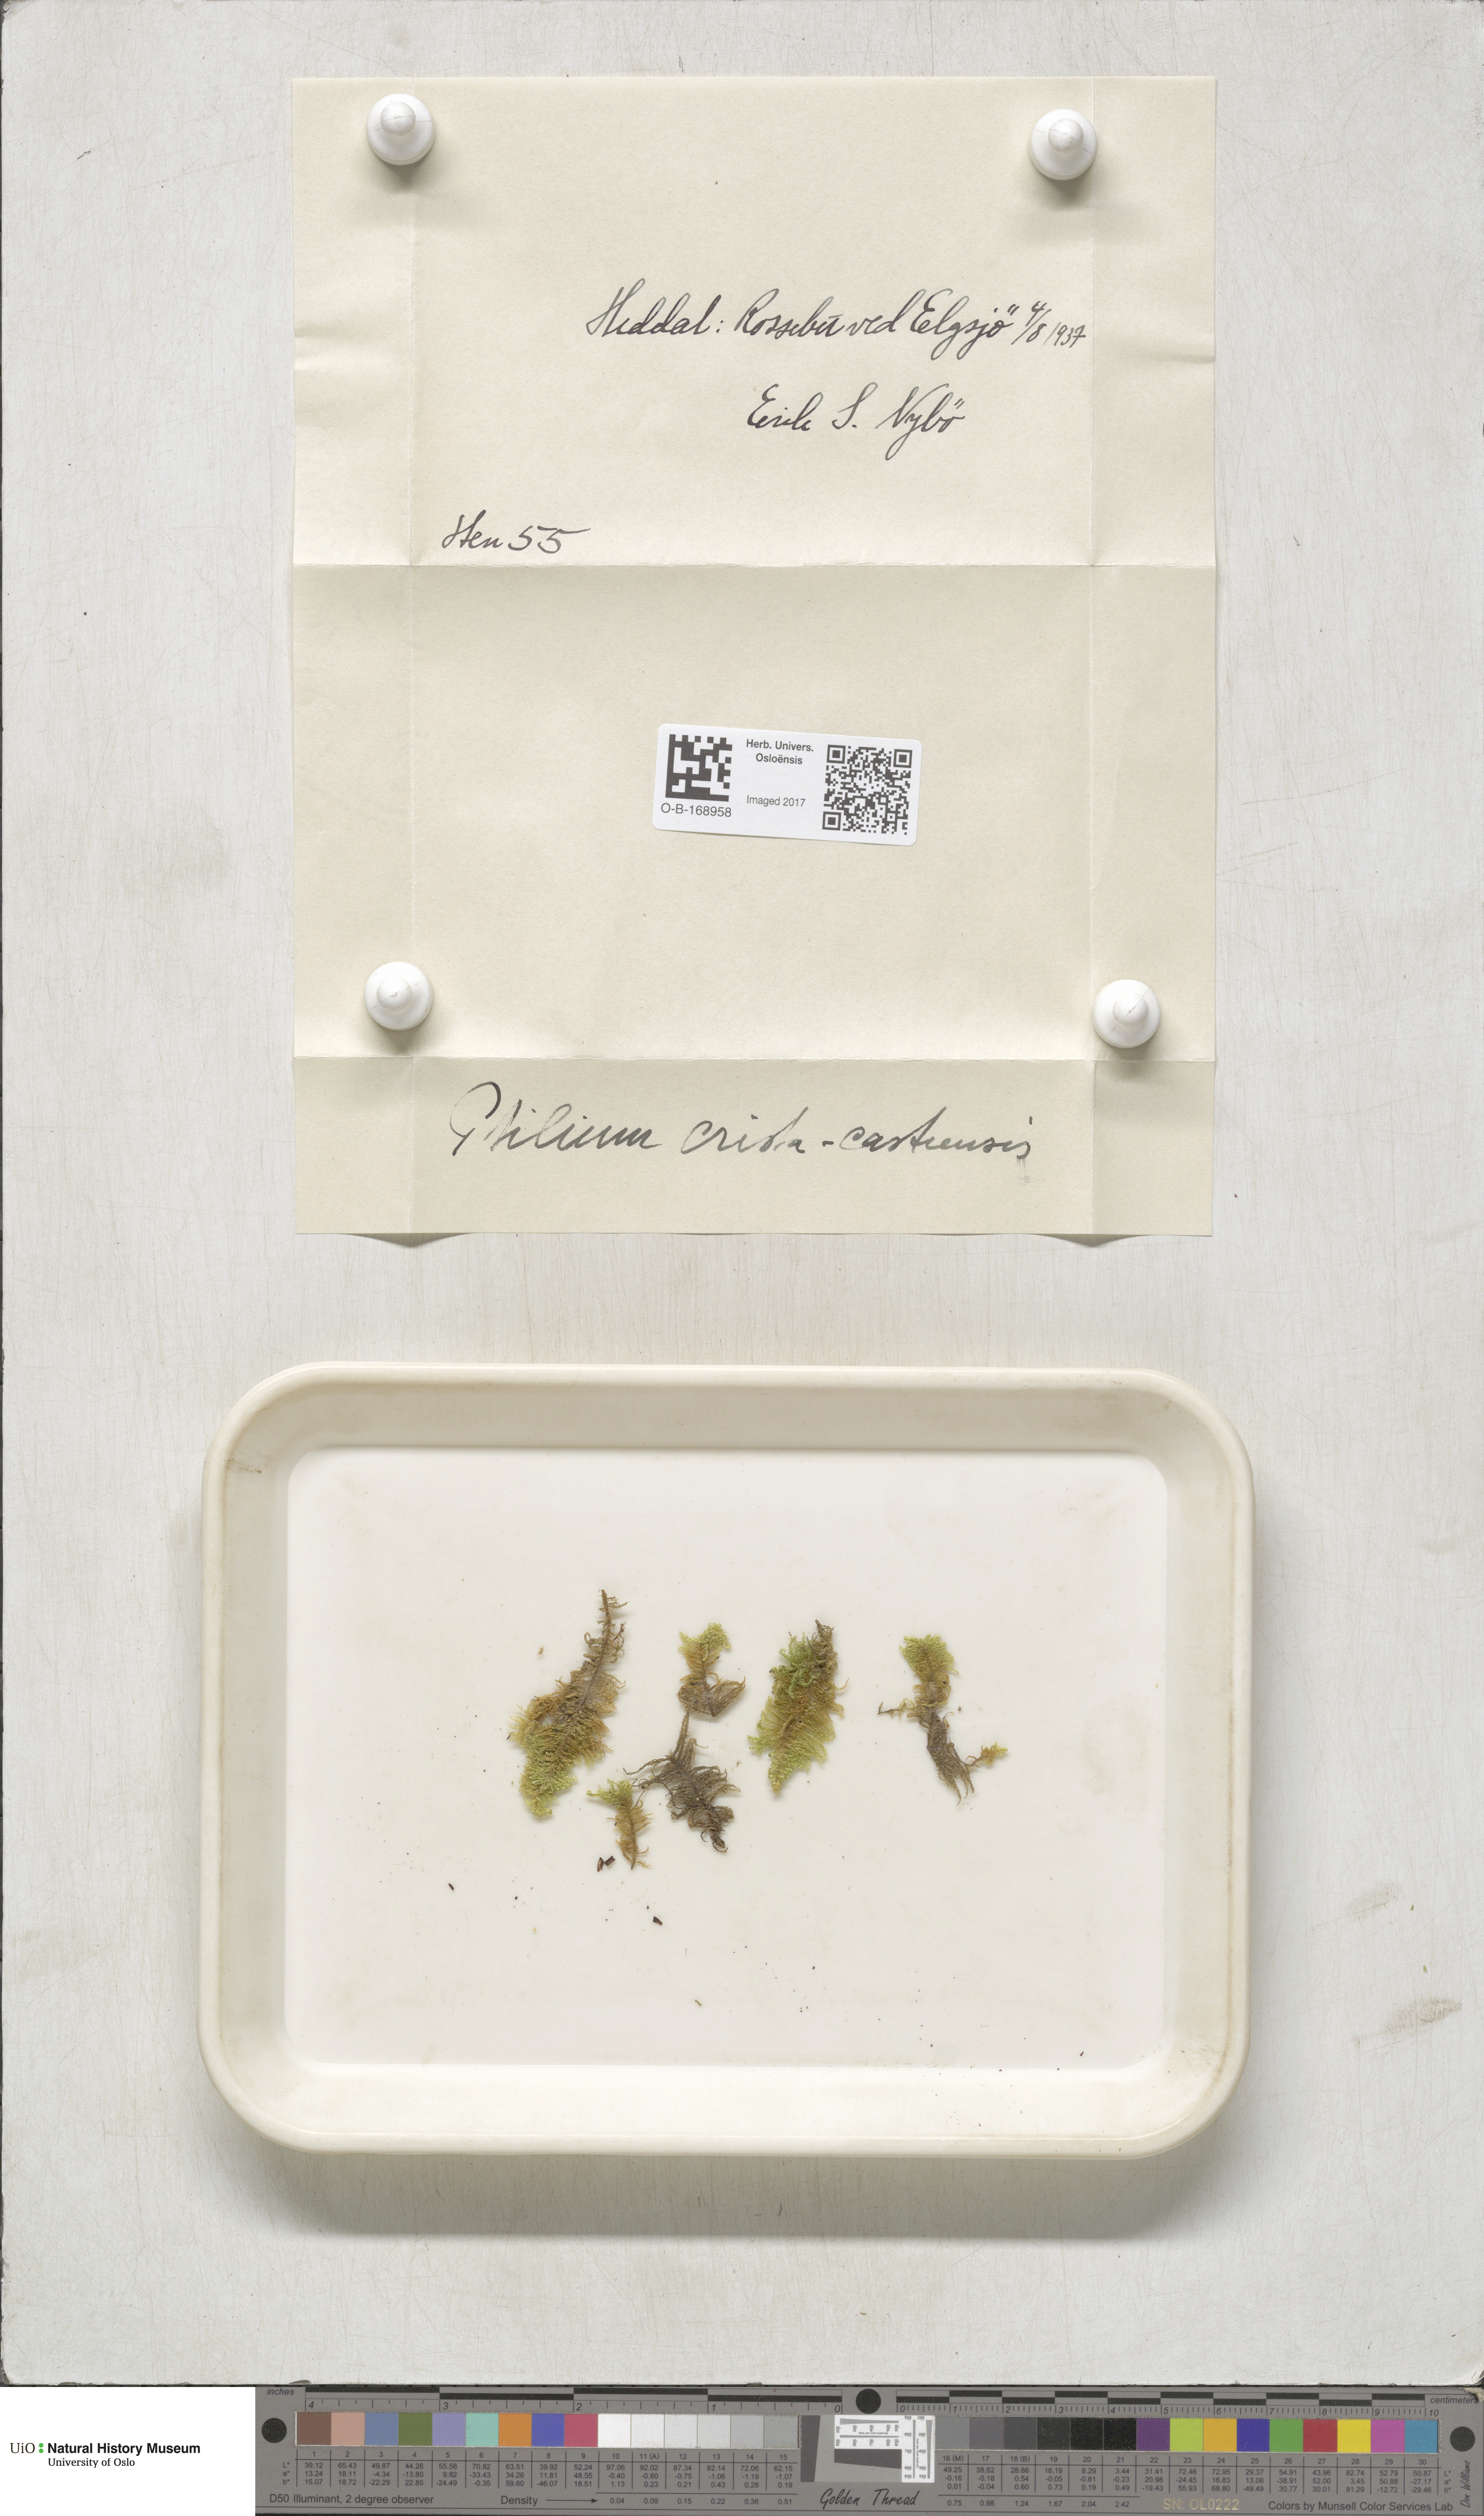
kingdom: Plantae
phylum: Bryophyta
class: Bryopsida
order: Hypnales
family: Pylaisiaceae
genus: Ptilium
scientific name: Ptilium crista-castrensis
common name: Knight's plume moss
